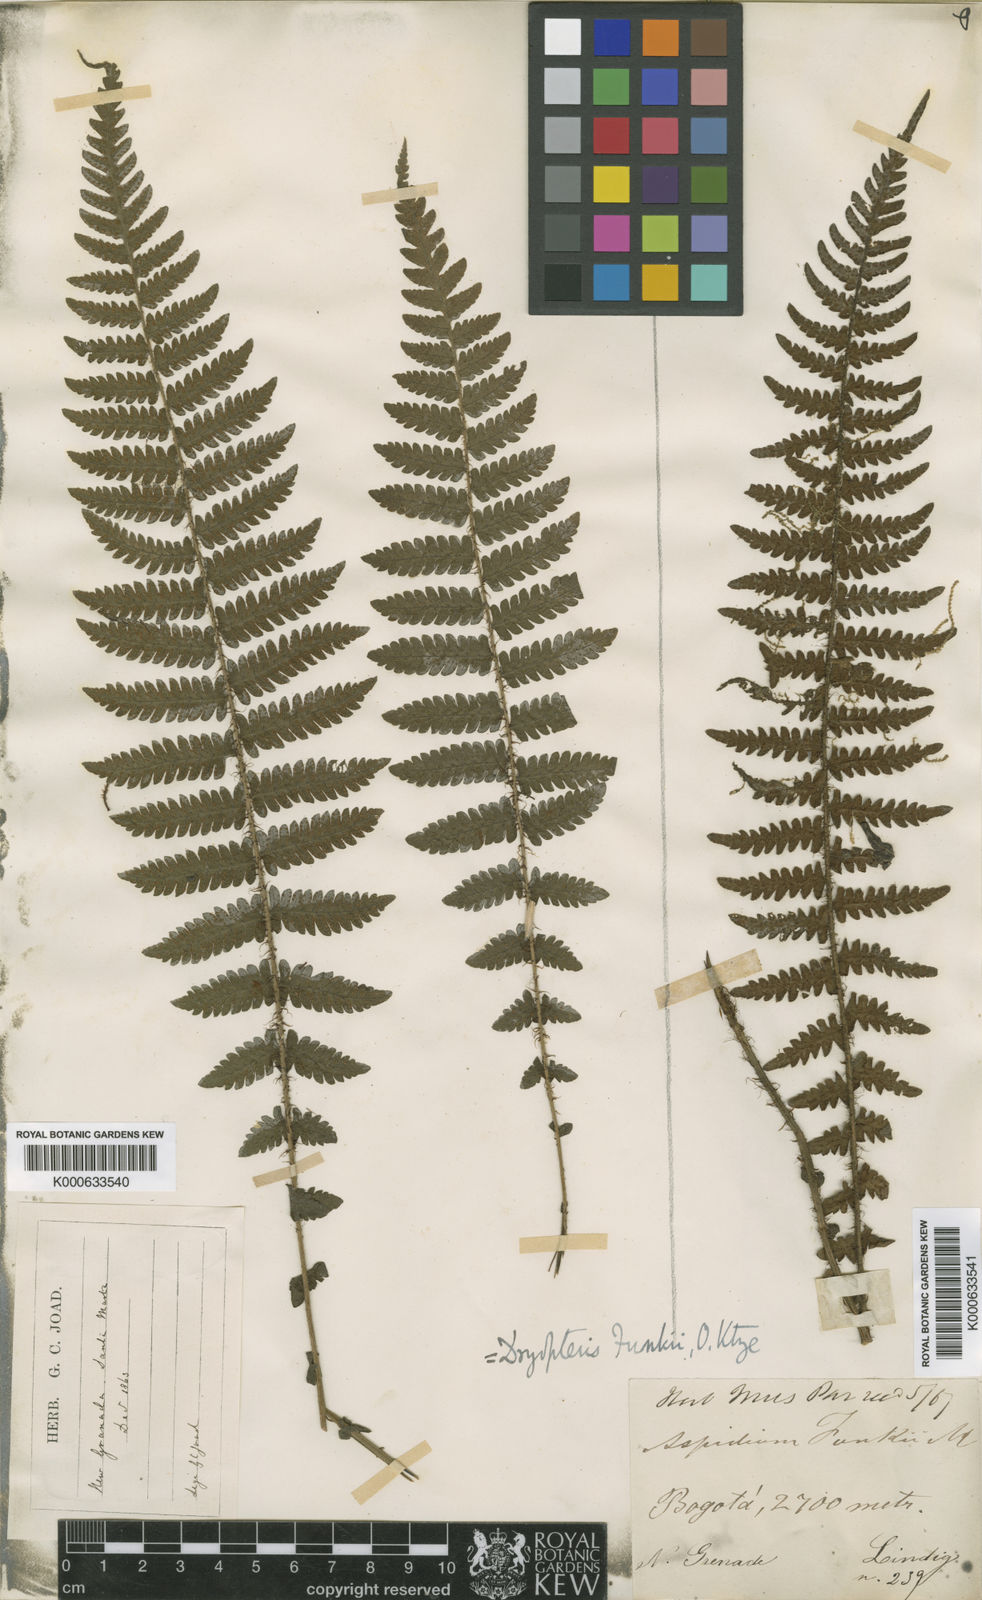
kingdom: Plantae
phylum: Tracheophyta
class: Polypodiopsida
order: Polypodiales
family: Thelypteridaceae
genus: Amauropelta
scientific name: Amauropelta funckii
